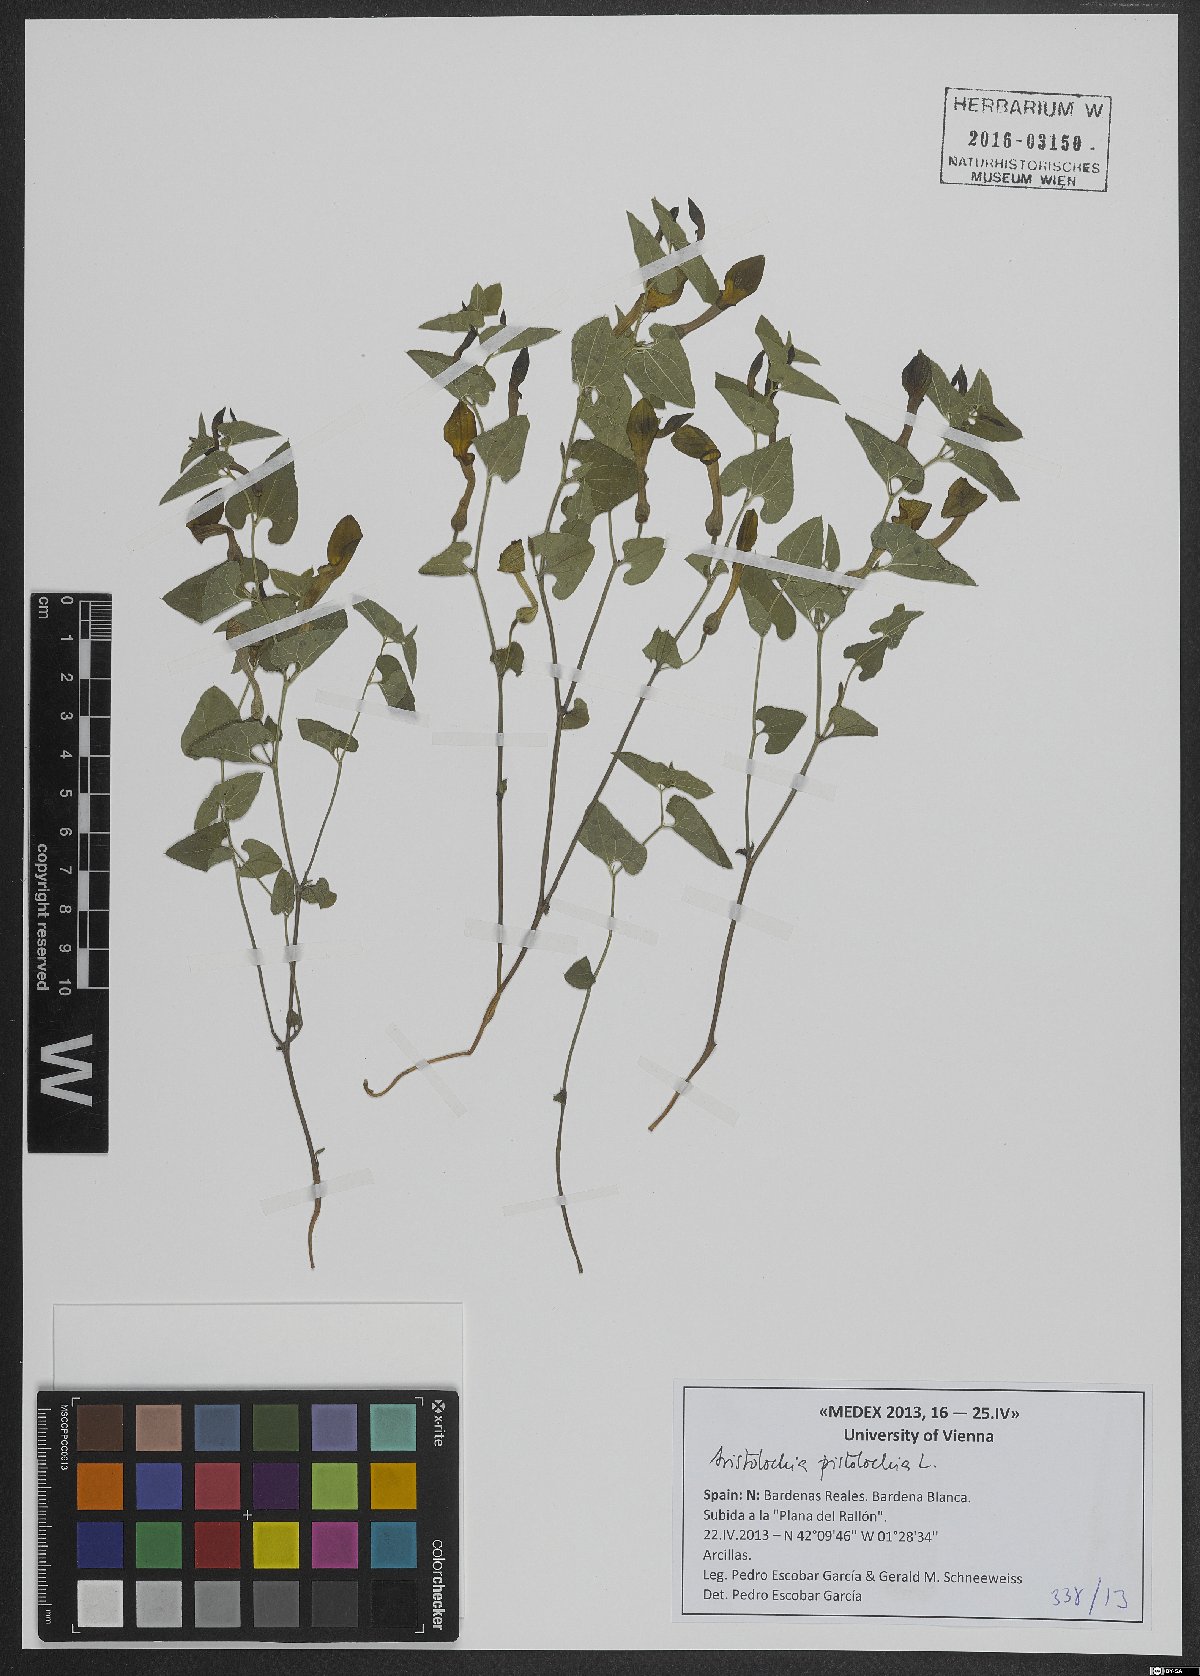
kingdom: Plantae
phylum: Tracheophyta
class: Magnoliopsida
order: Piperales
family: Aristolochiaceae
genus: Aristolochia
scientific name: Aristolochia pistolochia
